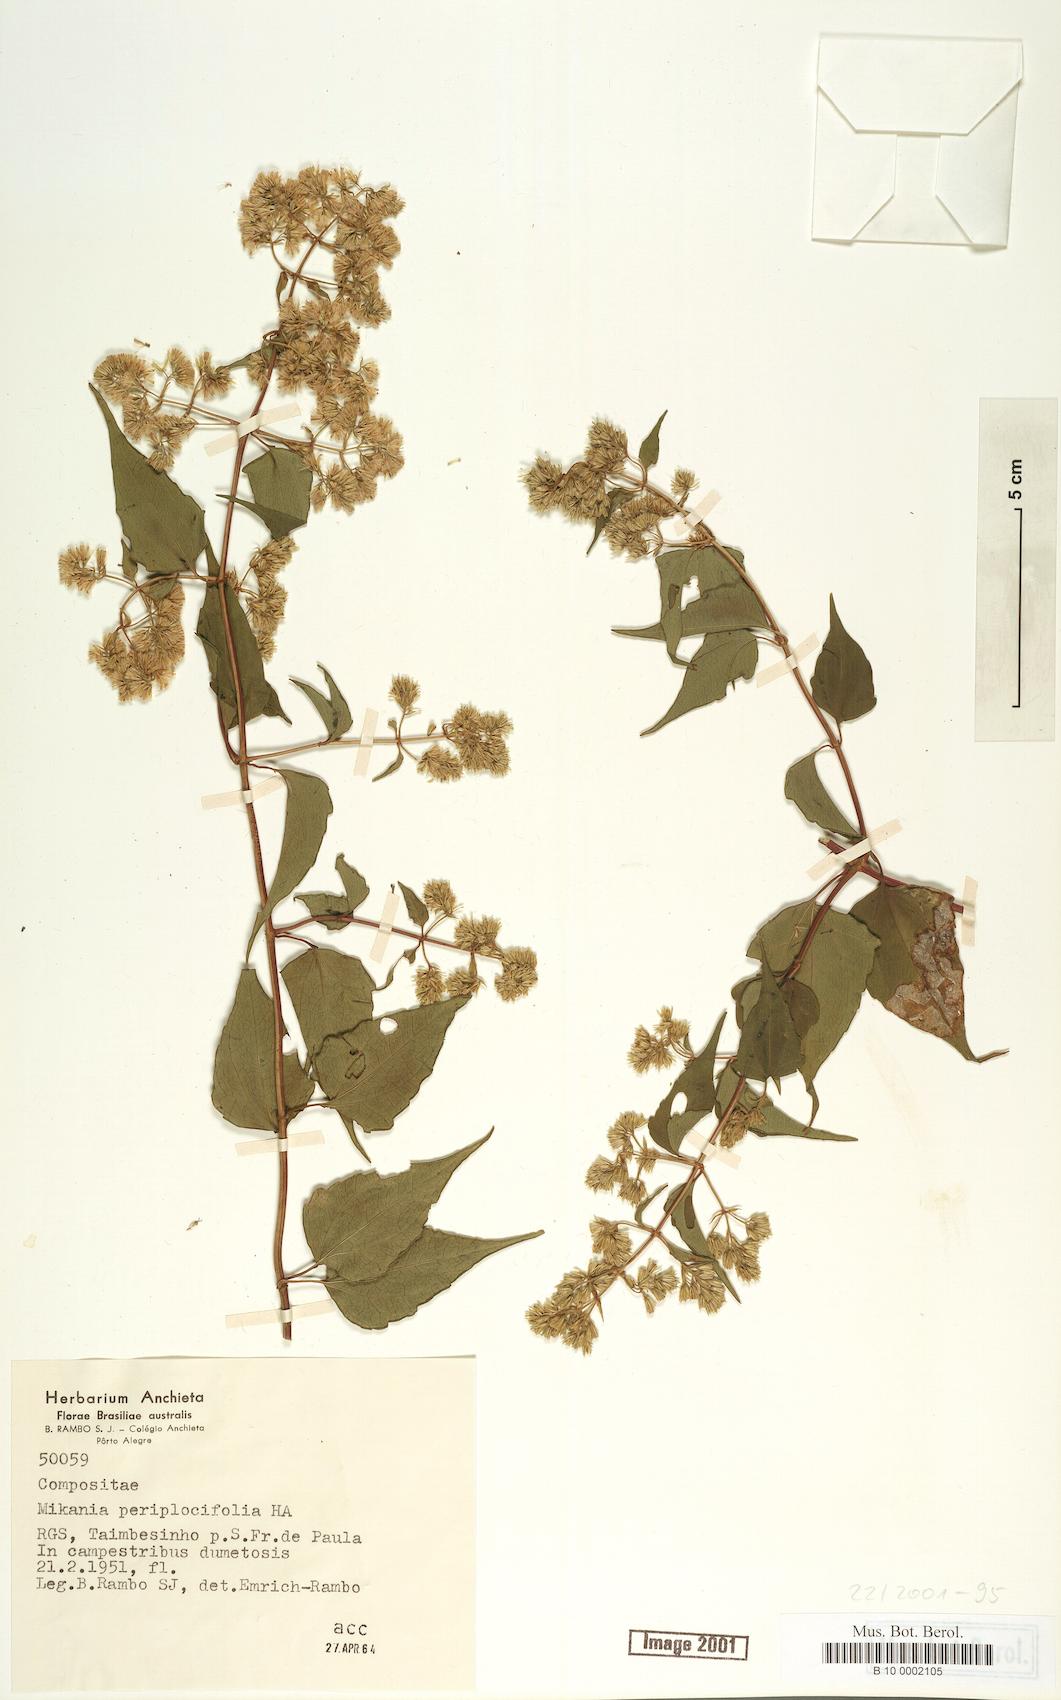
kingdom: Plantae
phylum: Tracheophyta
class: Magnoliopsida
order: Asterales
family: Asteraceae
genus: Mikania
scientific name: Mikania periplocifolia
